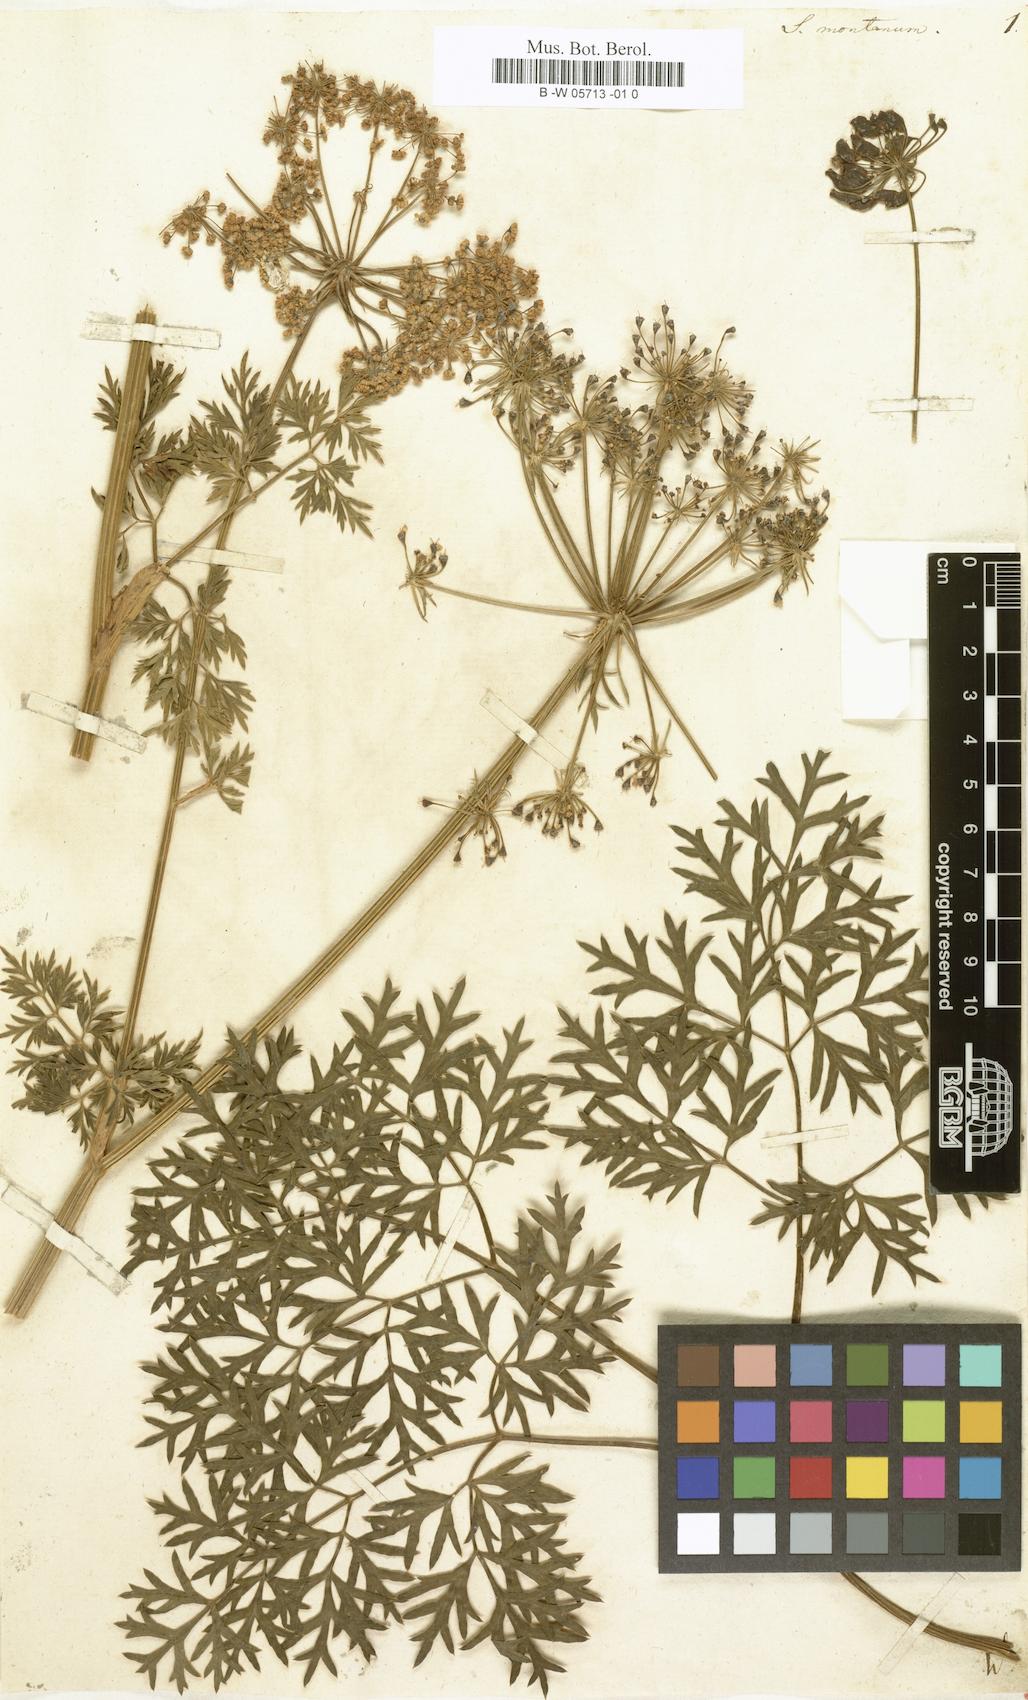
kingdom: Plantae
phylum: Tracheophyta
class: Magnoliopsida
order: Apiales
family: Apiaceae
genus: Peucedanum
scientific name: Peucedanum austriacum
